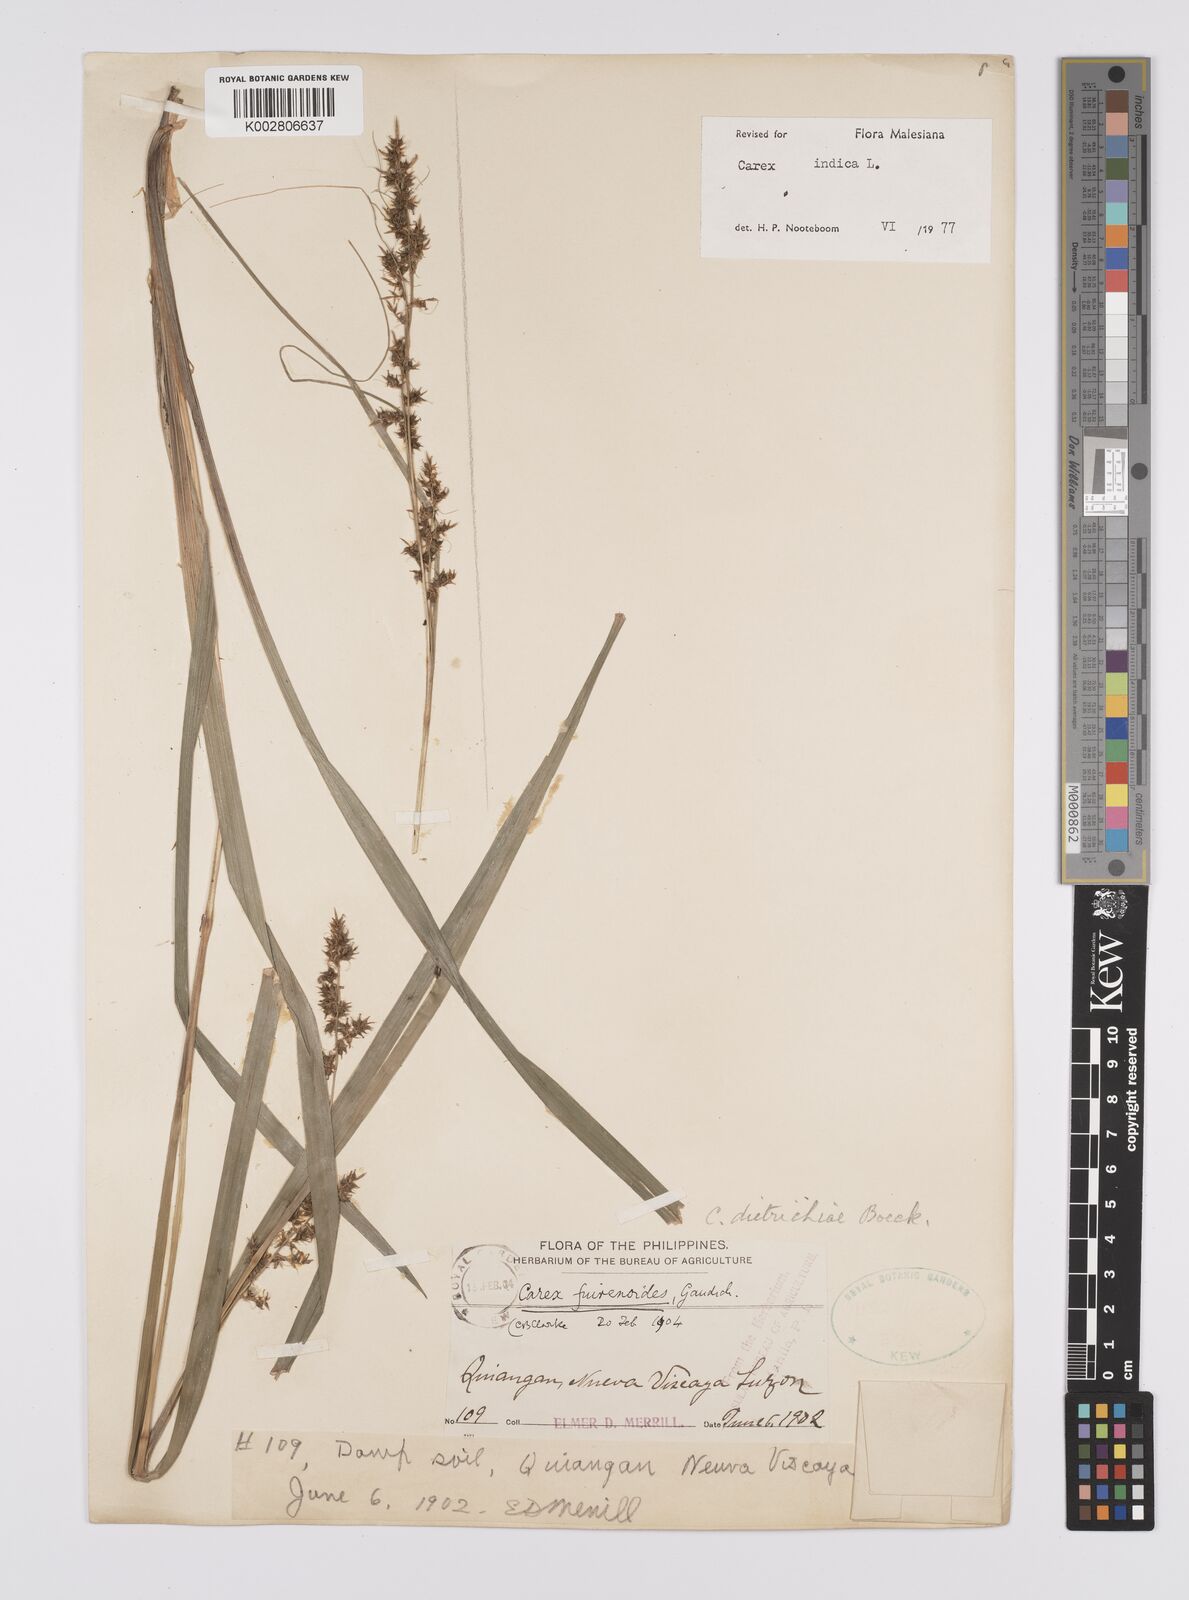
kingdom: Plantae
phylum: Tracheophyta
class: Liliopsida
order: Poales
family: Cyperaceae
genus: Carex
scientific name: Carex indica
